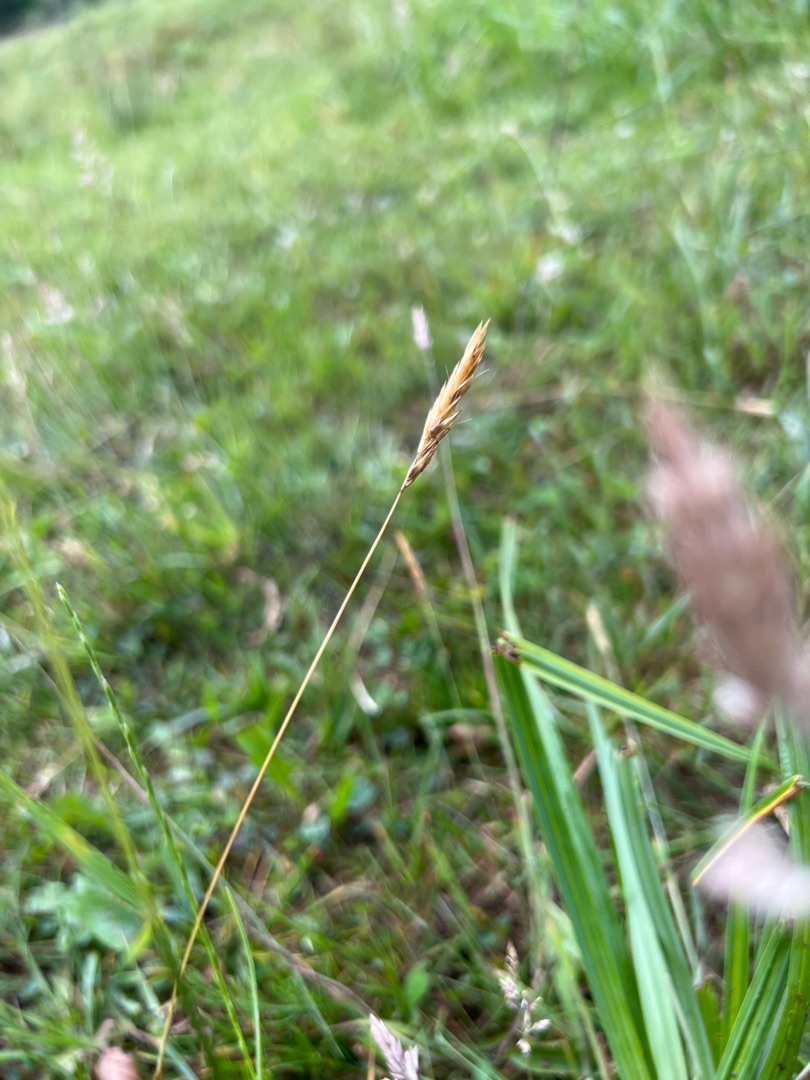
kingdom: Plantae
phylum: Tracheophyta
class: Liliopsida
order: Poales
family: Poaceae
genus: Anthoxanthum
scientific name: Anthoxanthum odoratum
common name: Vellugtende gulaks
